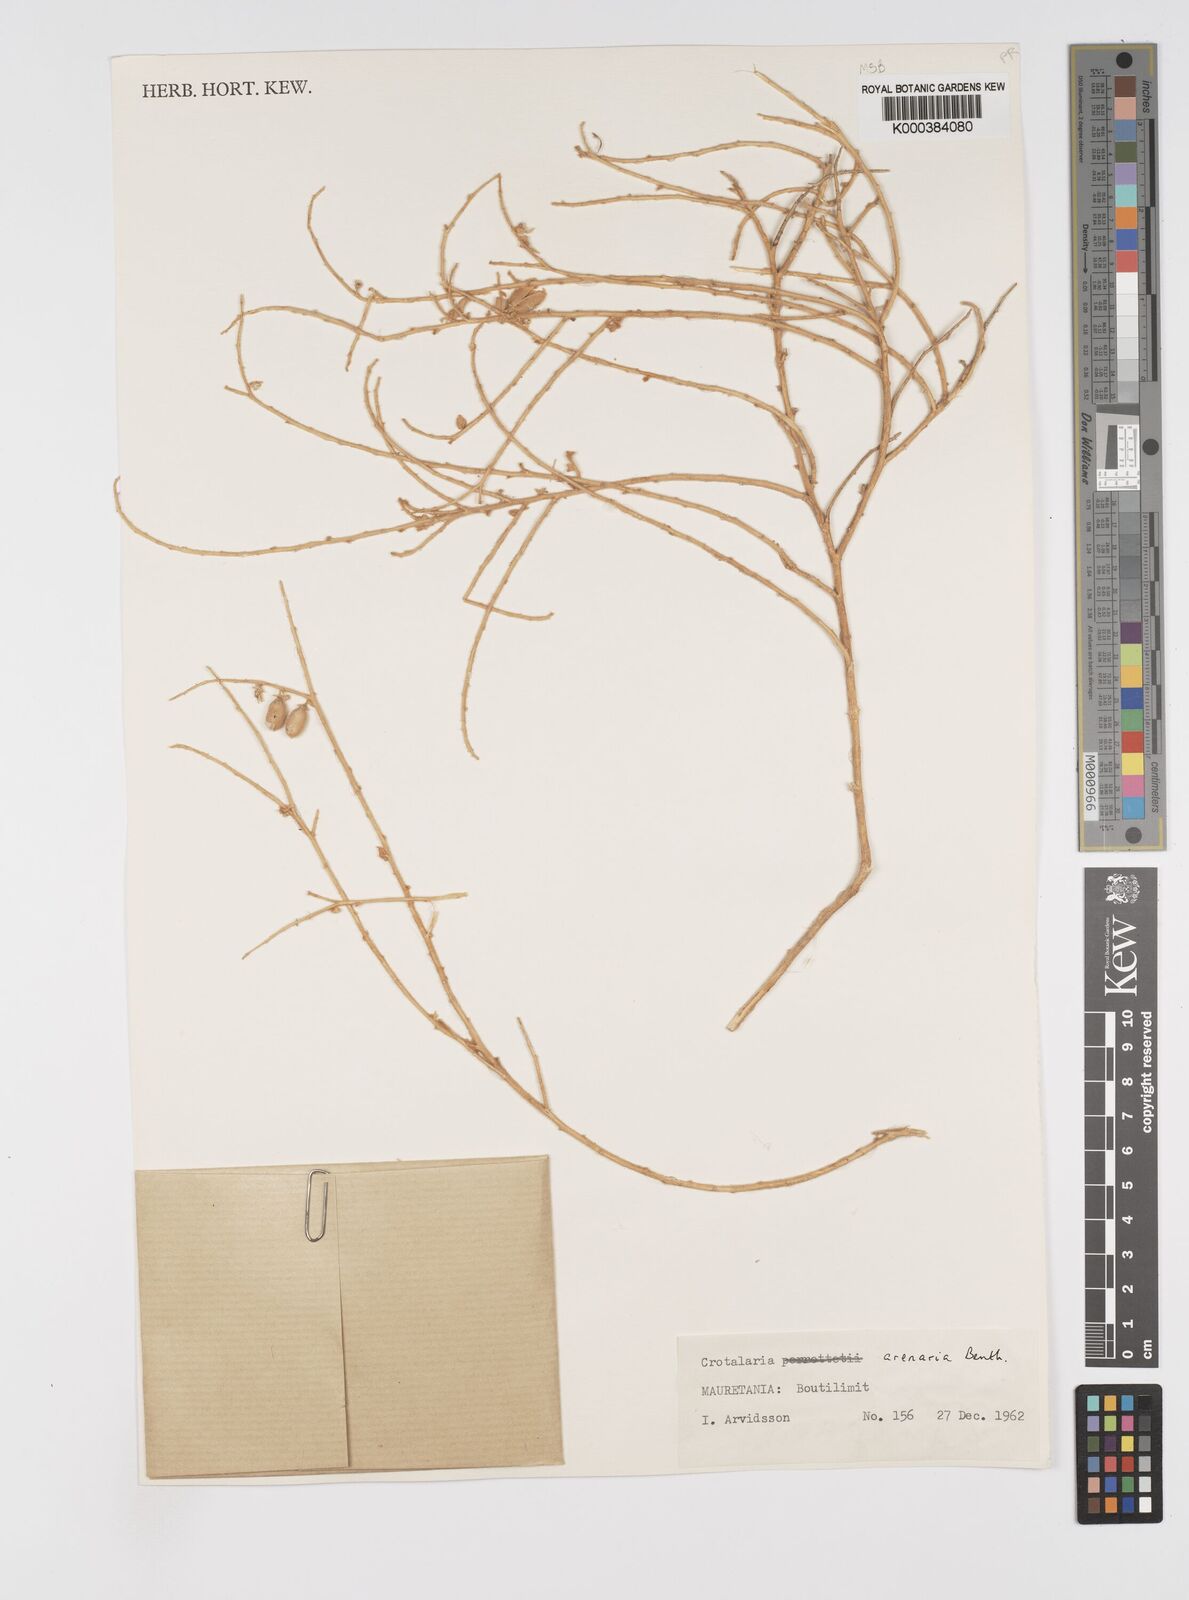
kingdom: Plantae
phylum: Tracheophyta
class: Magnoliopsida
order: Fabales
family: Fabaceae
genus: Crotalaria
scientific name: Crotalaria arenaria
